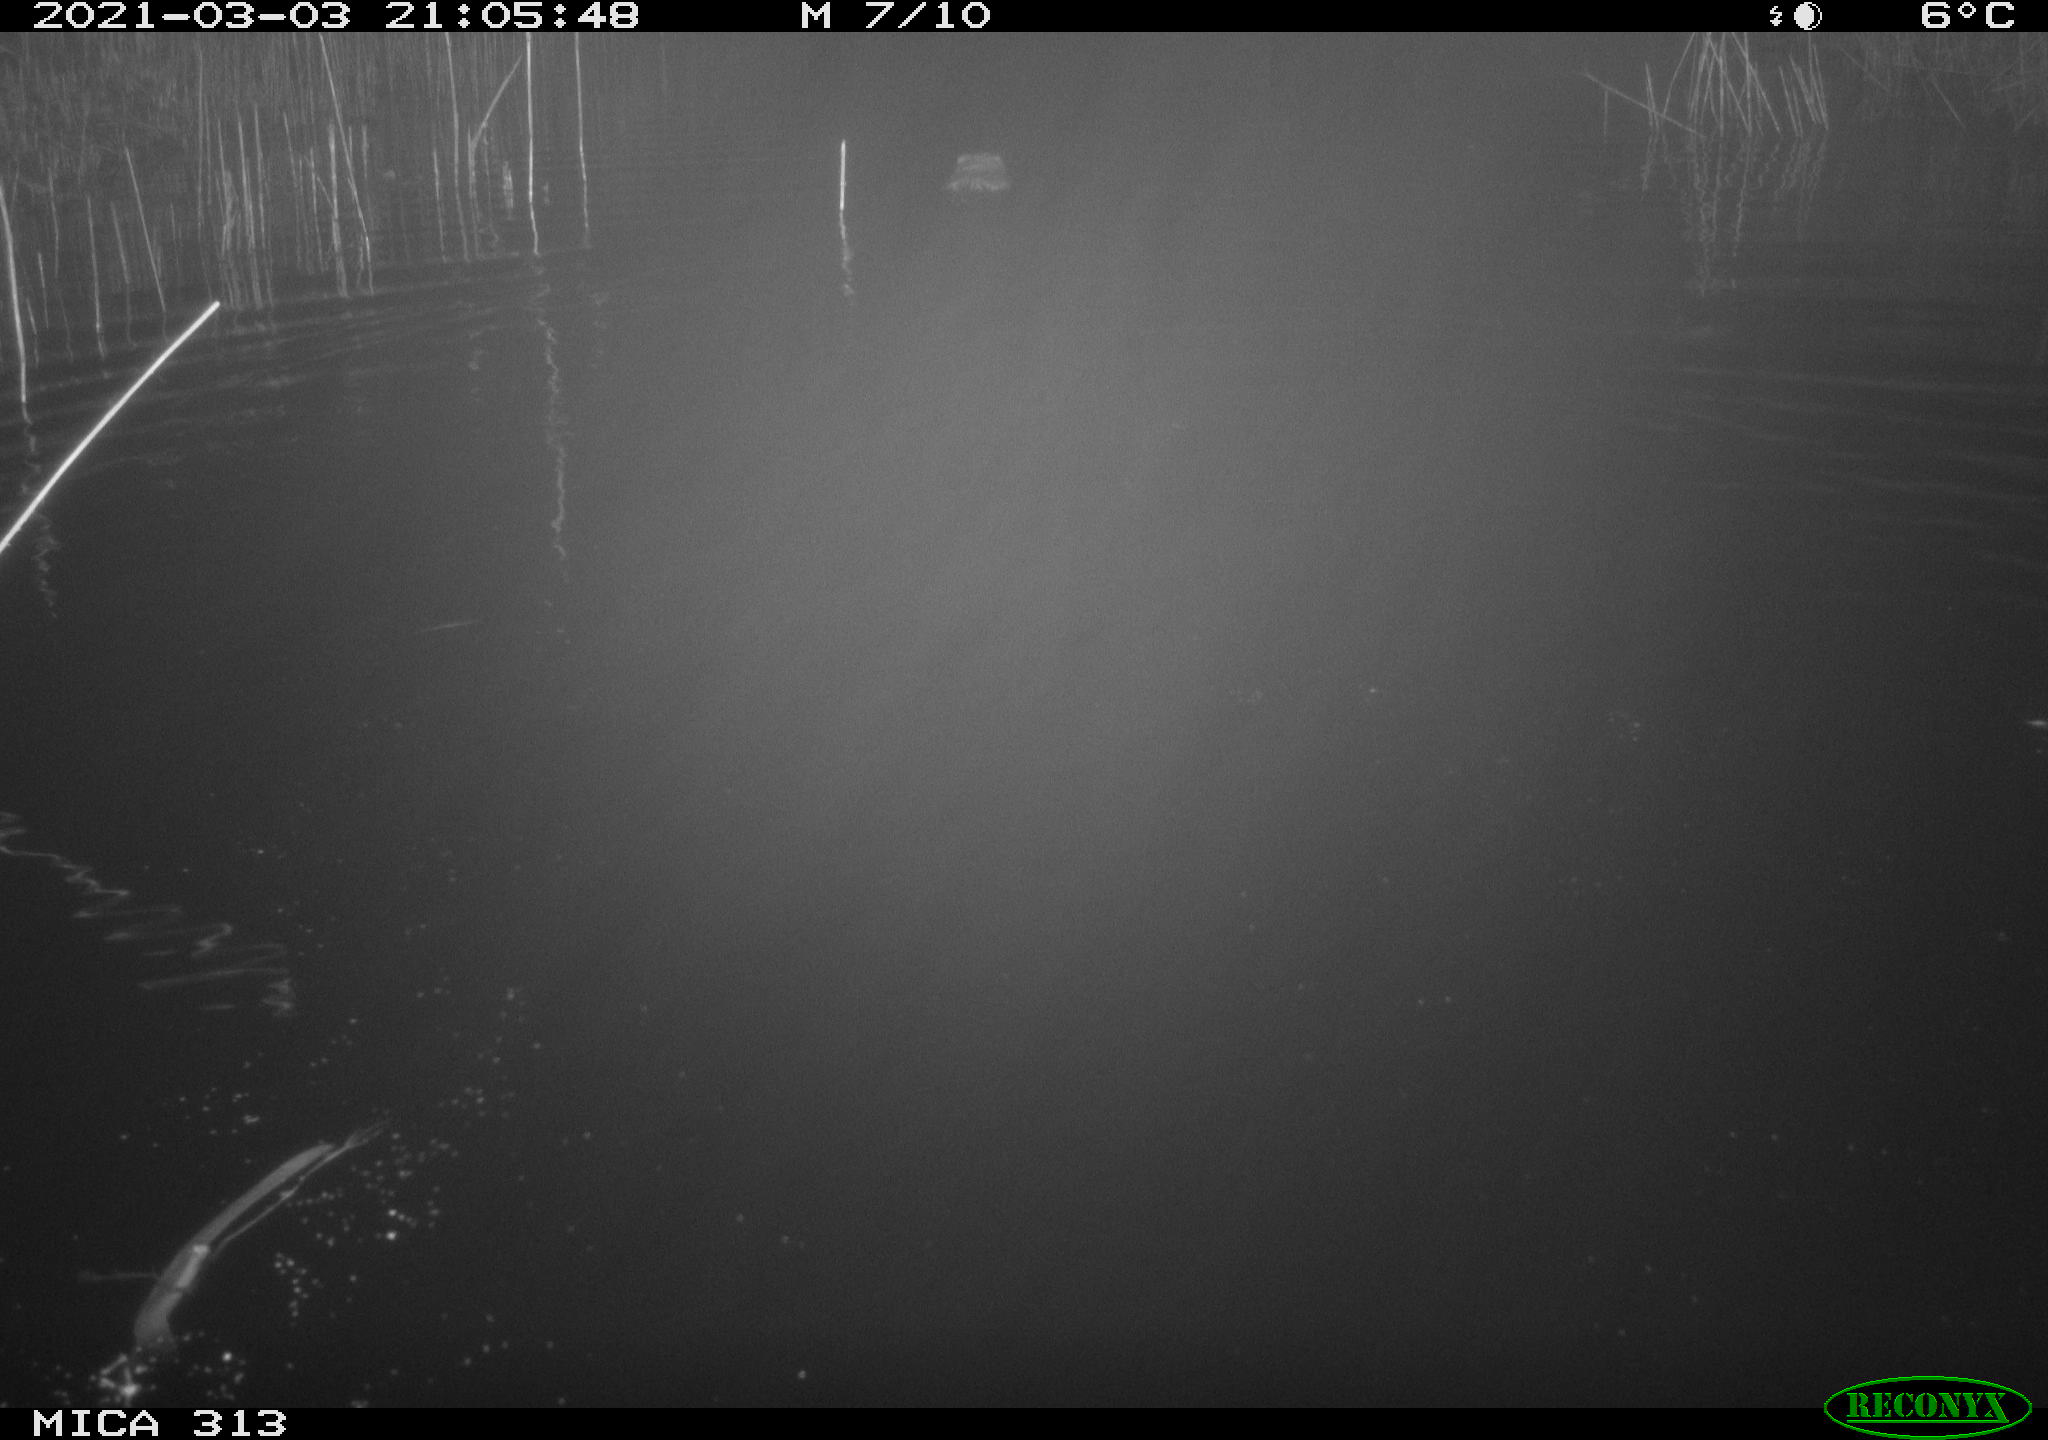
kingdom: Animalia
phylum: Chordata
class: Mammalia
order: Rodentia
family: Cricetidae
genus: Ondatra
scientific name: Ondatra zibethicus
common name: Muskrat
